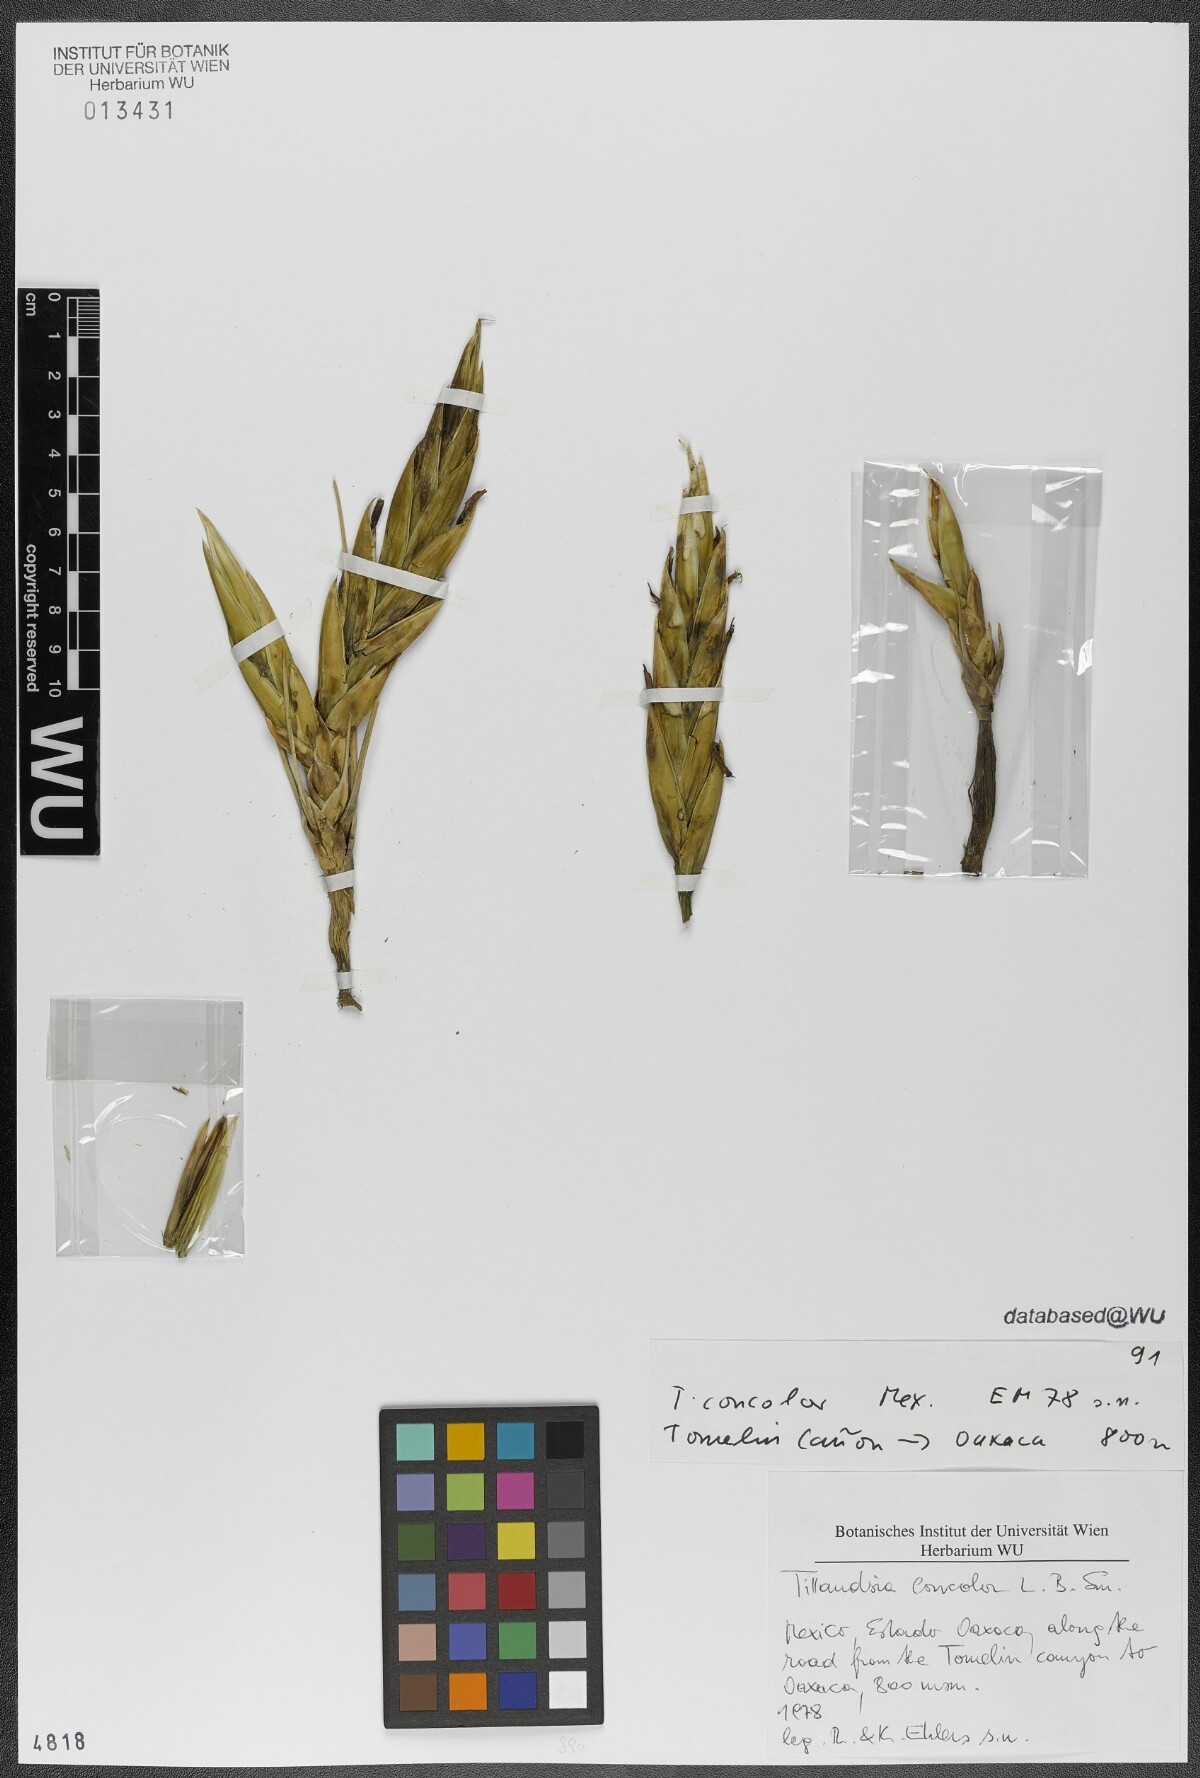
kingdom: Plantae
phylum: Tracheophyta
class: Liliopsida
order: Poales
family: Bromeliaceae
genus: Tillandsia
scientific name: Tillandsia concolor
